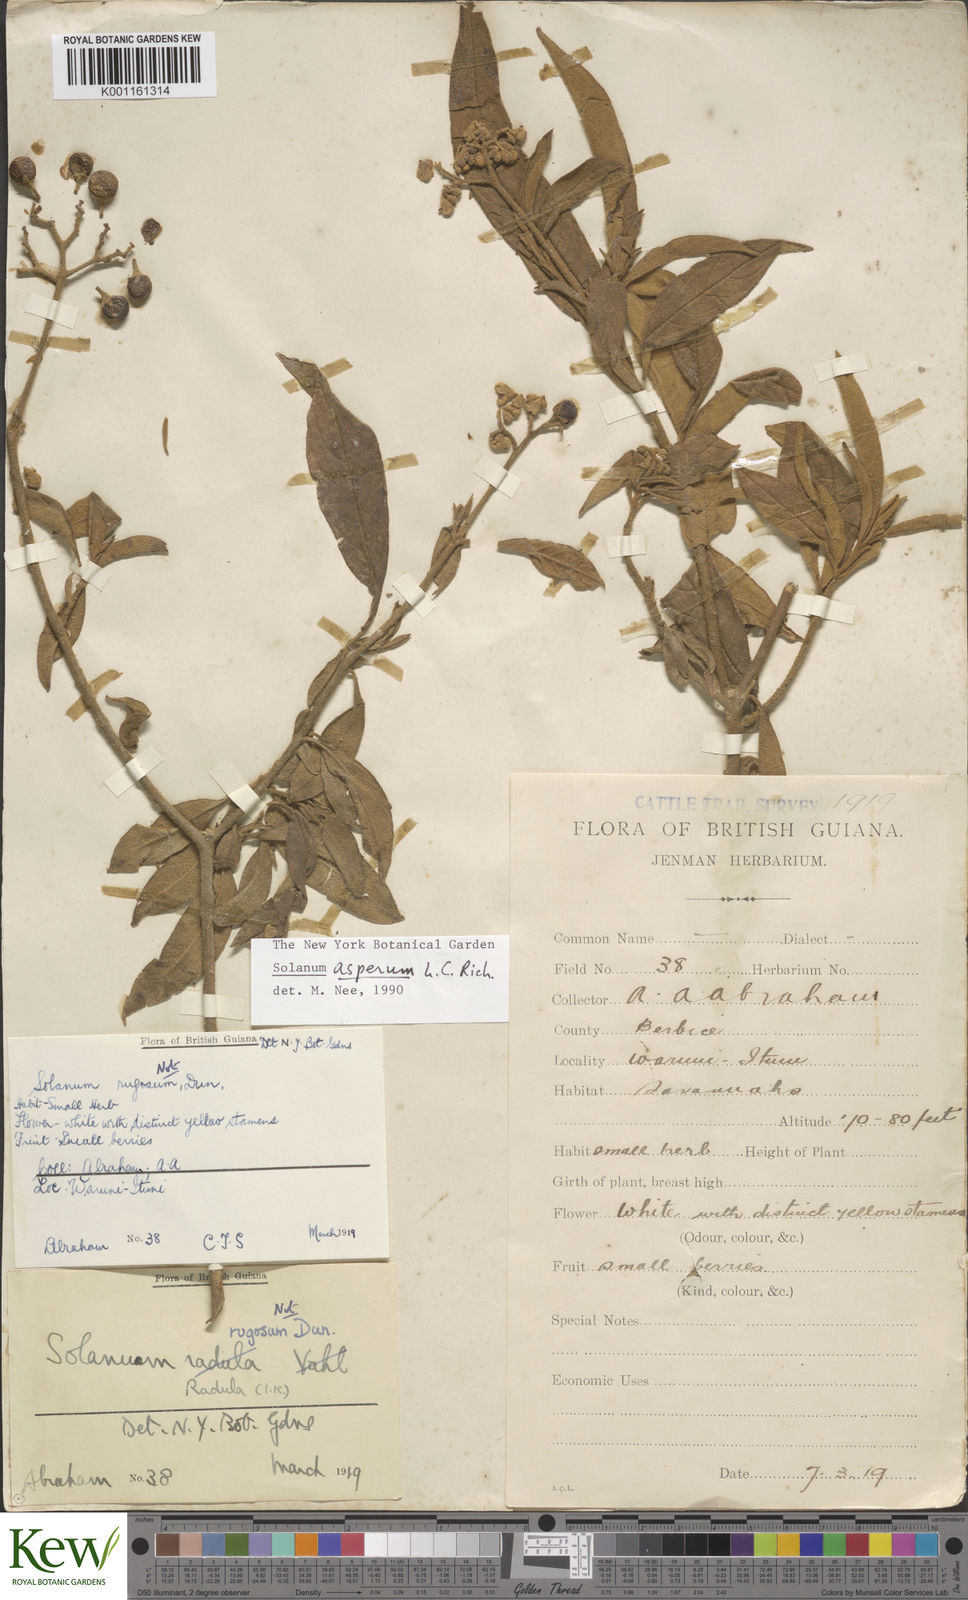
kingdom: Plantae
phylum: Tracheophyta
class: Magnoliopsida
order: Solanales
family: Solanaceae
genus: Solanum
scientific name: Solanum asperum
